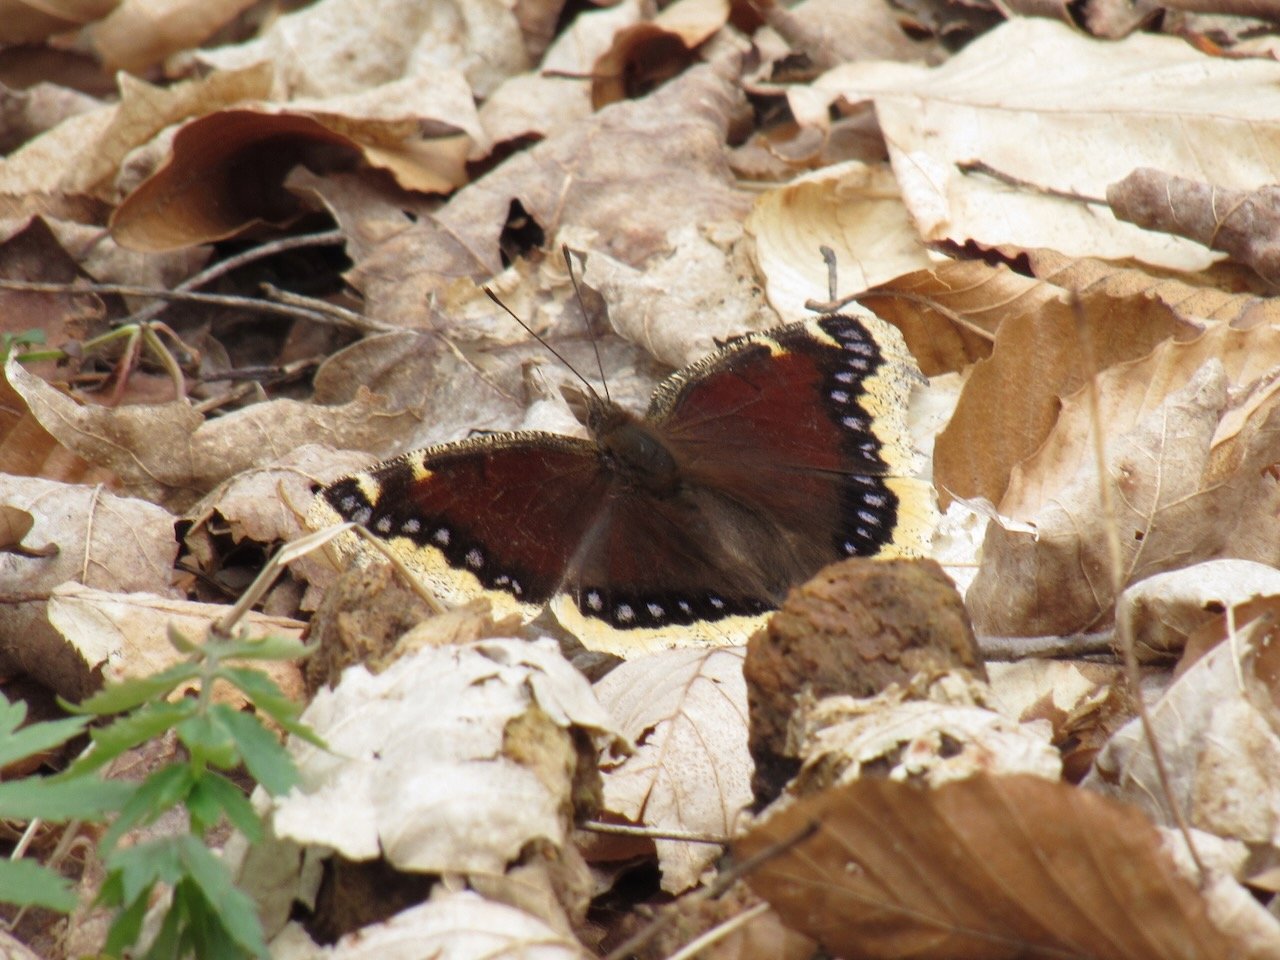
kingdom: Animalia
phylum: Arthropoda
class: Insecta
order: Lepidoptera
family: Nymphalidae
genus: Nymphalis
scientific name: Nymphalis antiopa
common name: Mourning Cloak
